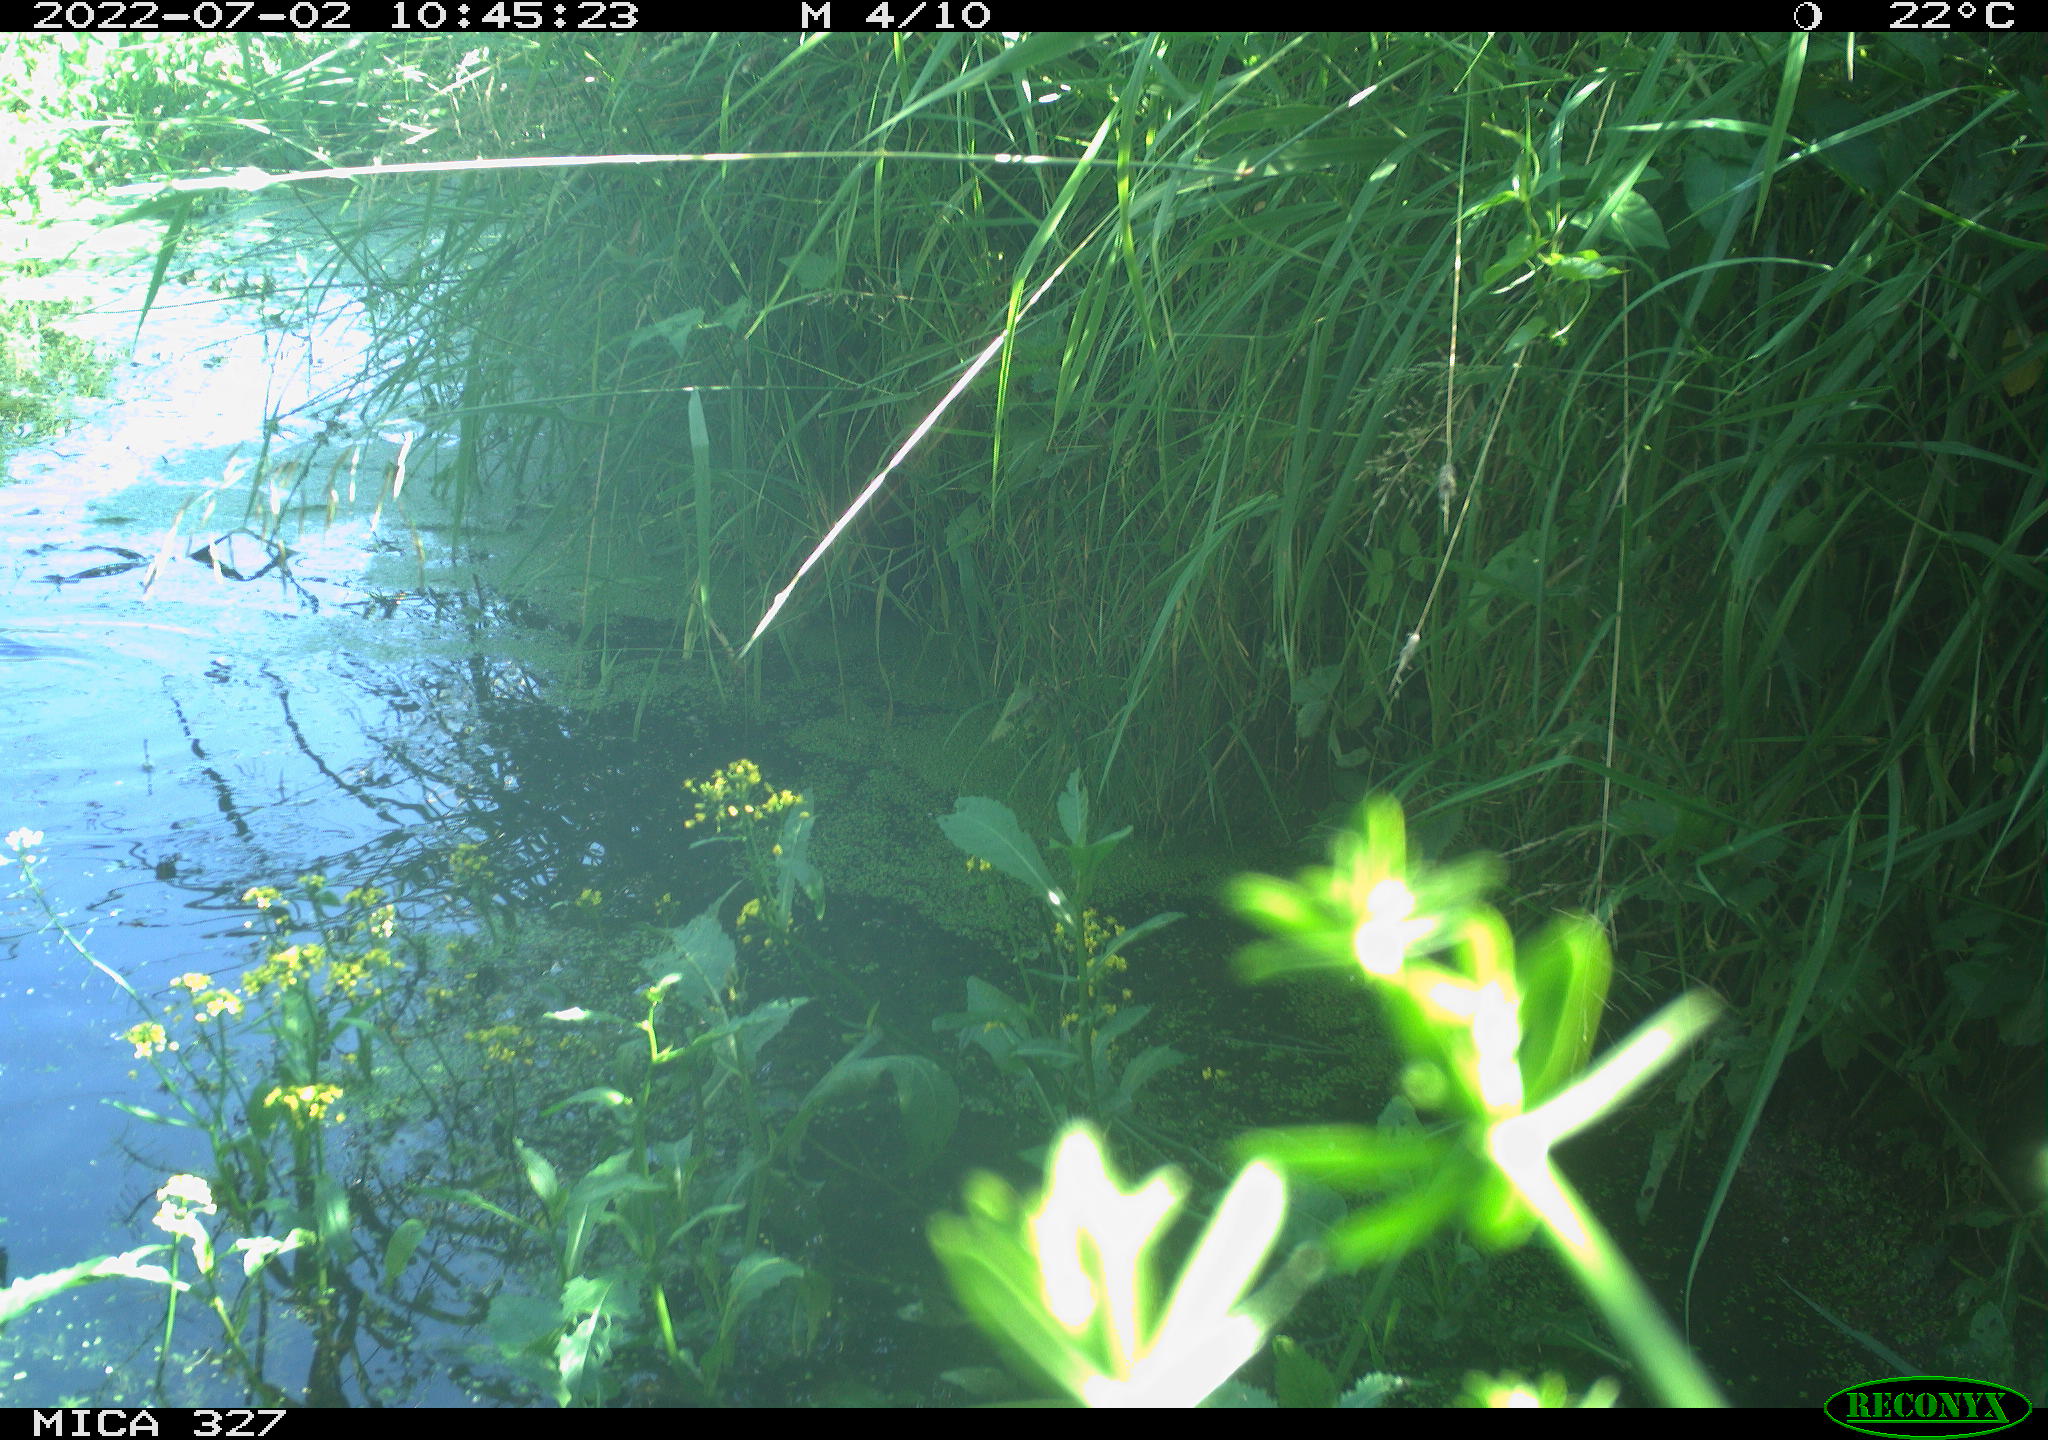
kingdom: Animalia
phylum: Chordata
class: Aves
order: Gruiformes
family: Rallidae
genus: Gallinula
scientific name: Gallinula chloropus
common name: Common moorhen
